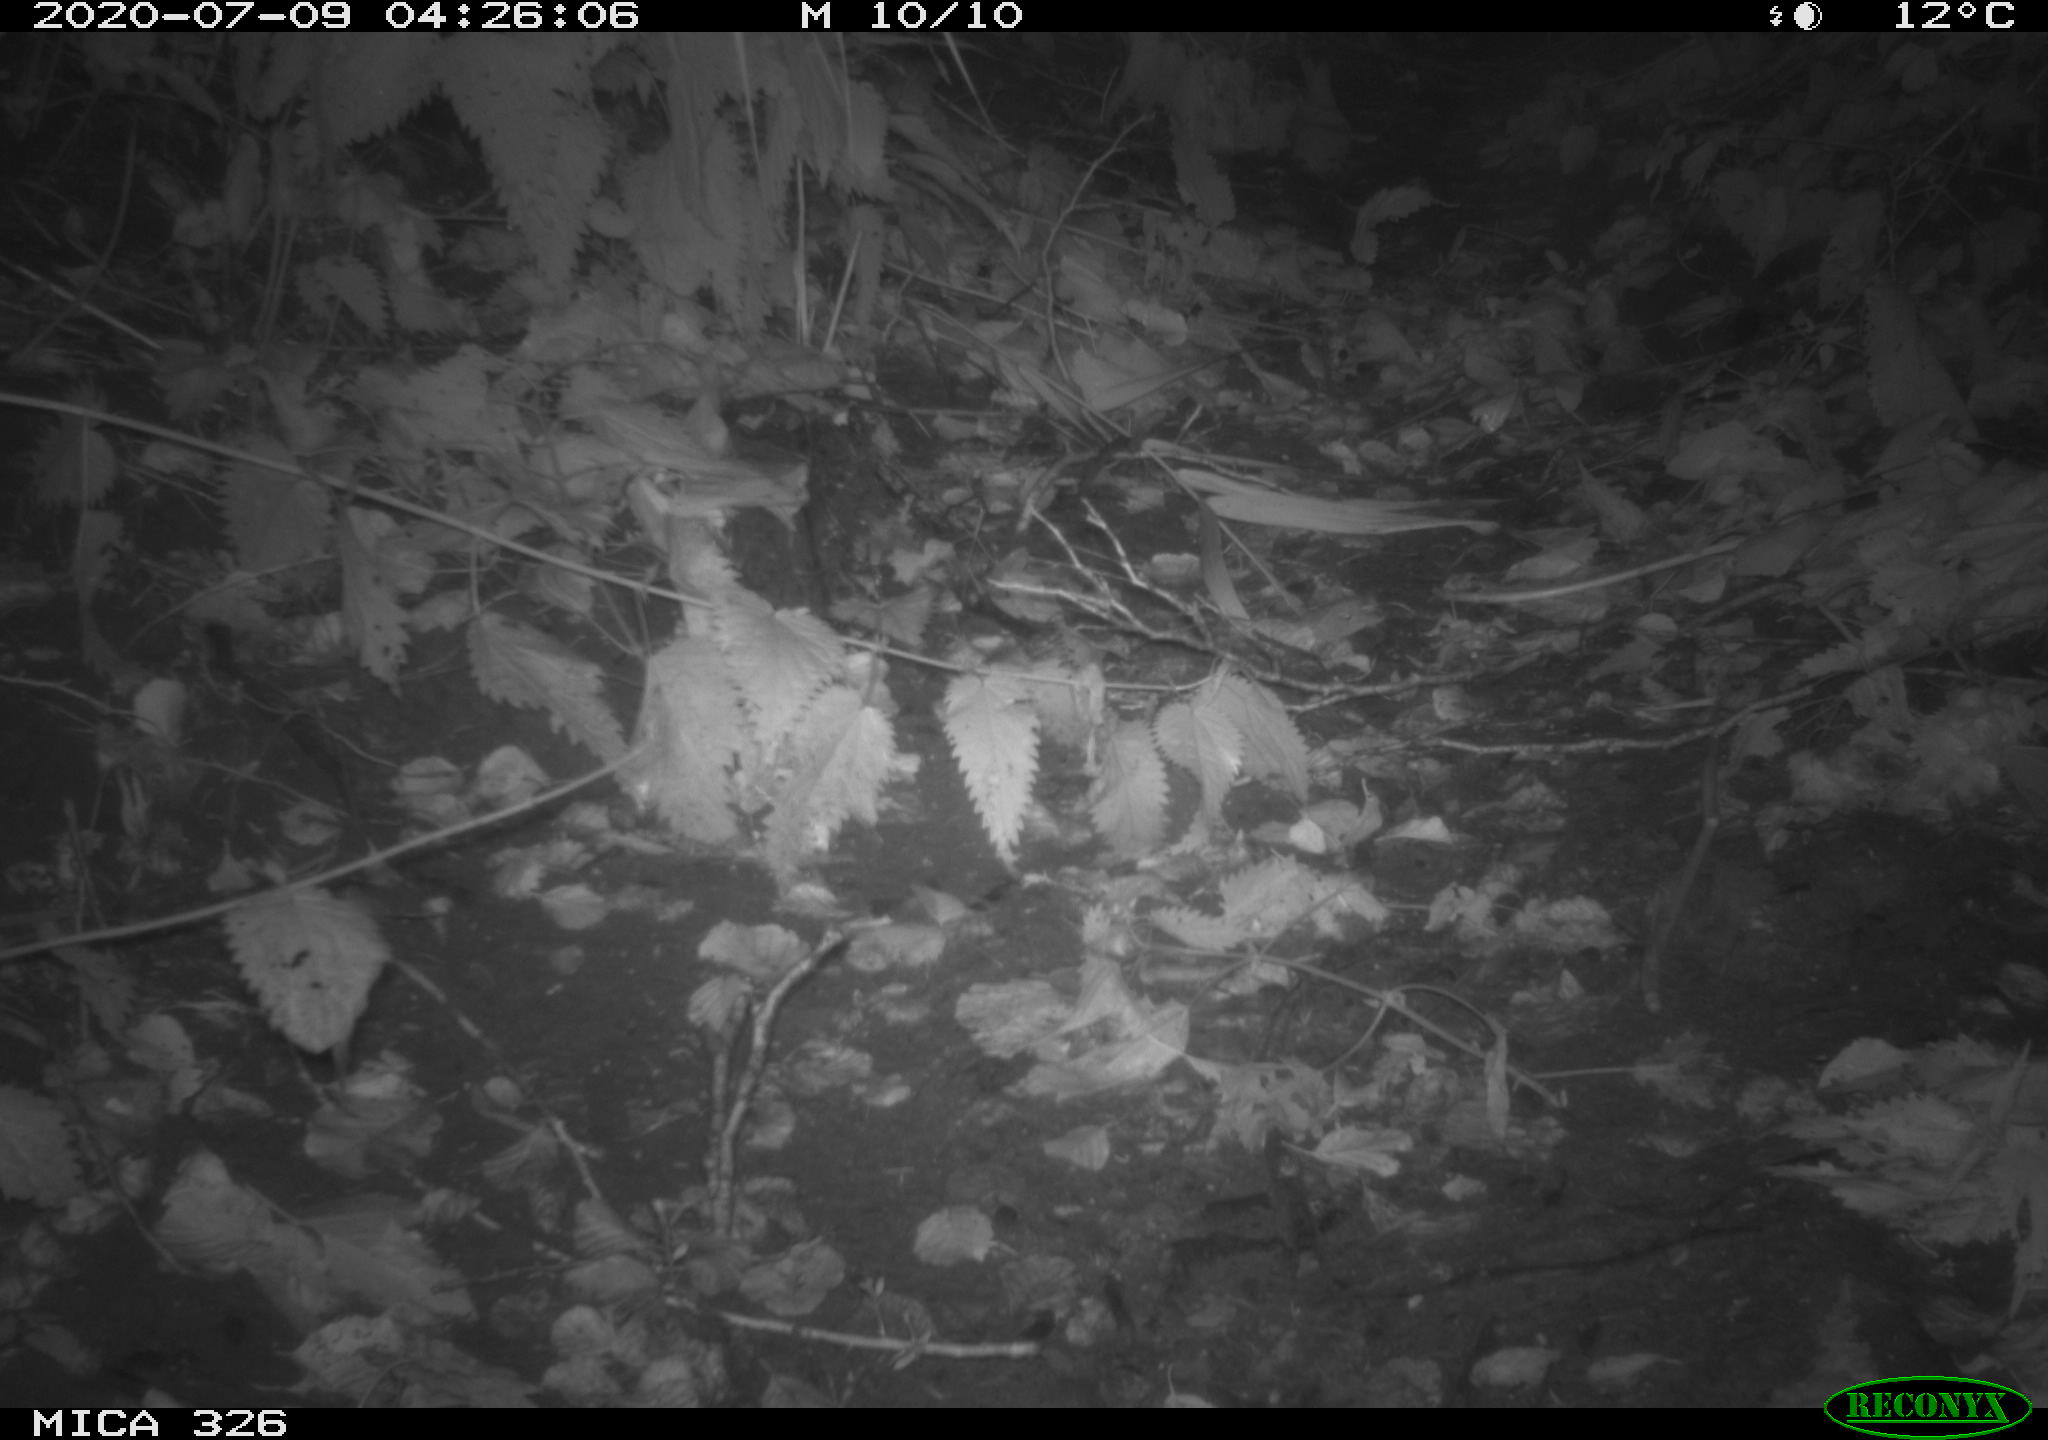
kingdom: Animalia
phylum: Chordata
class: Mammalia
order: Rodentia
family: Muridae
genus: Rattus
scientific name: Rattus norvegicus
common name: Brown rat
